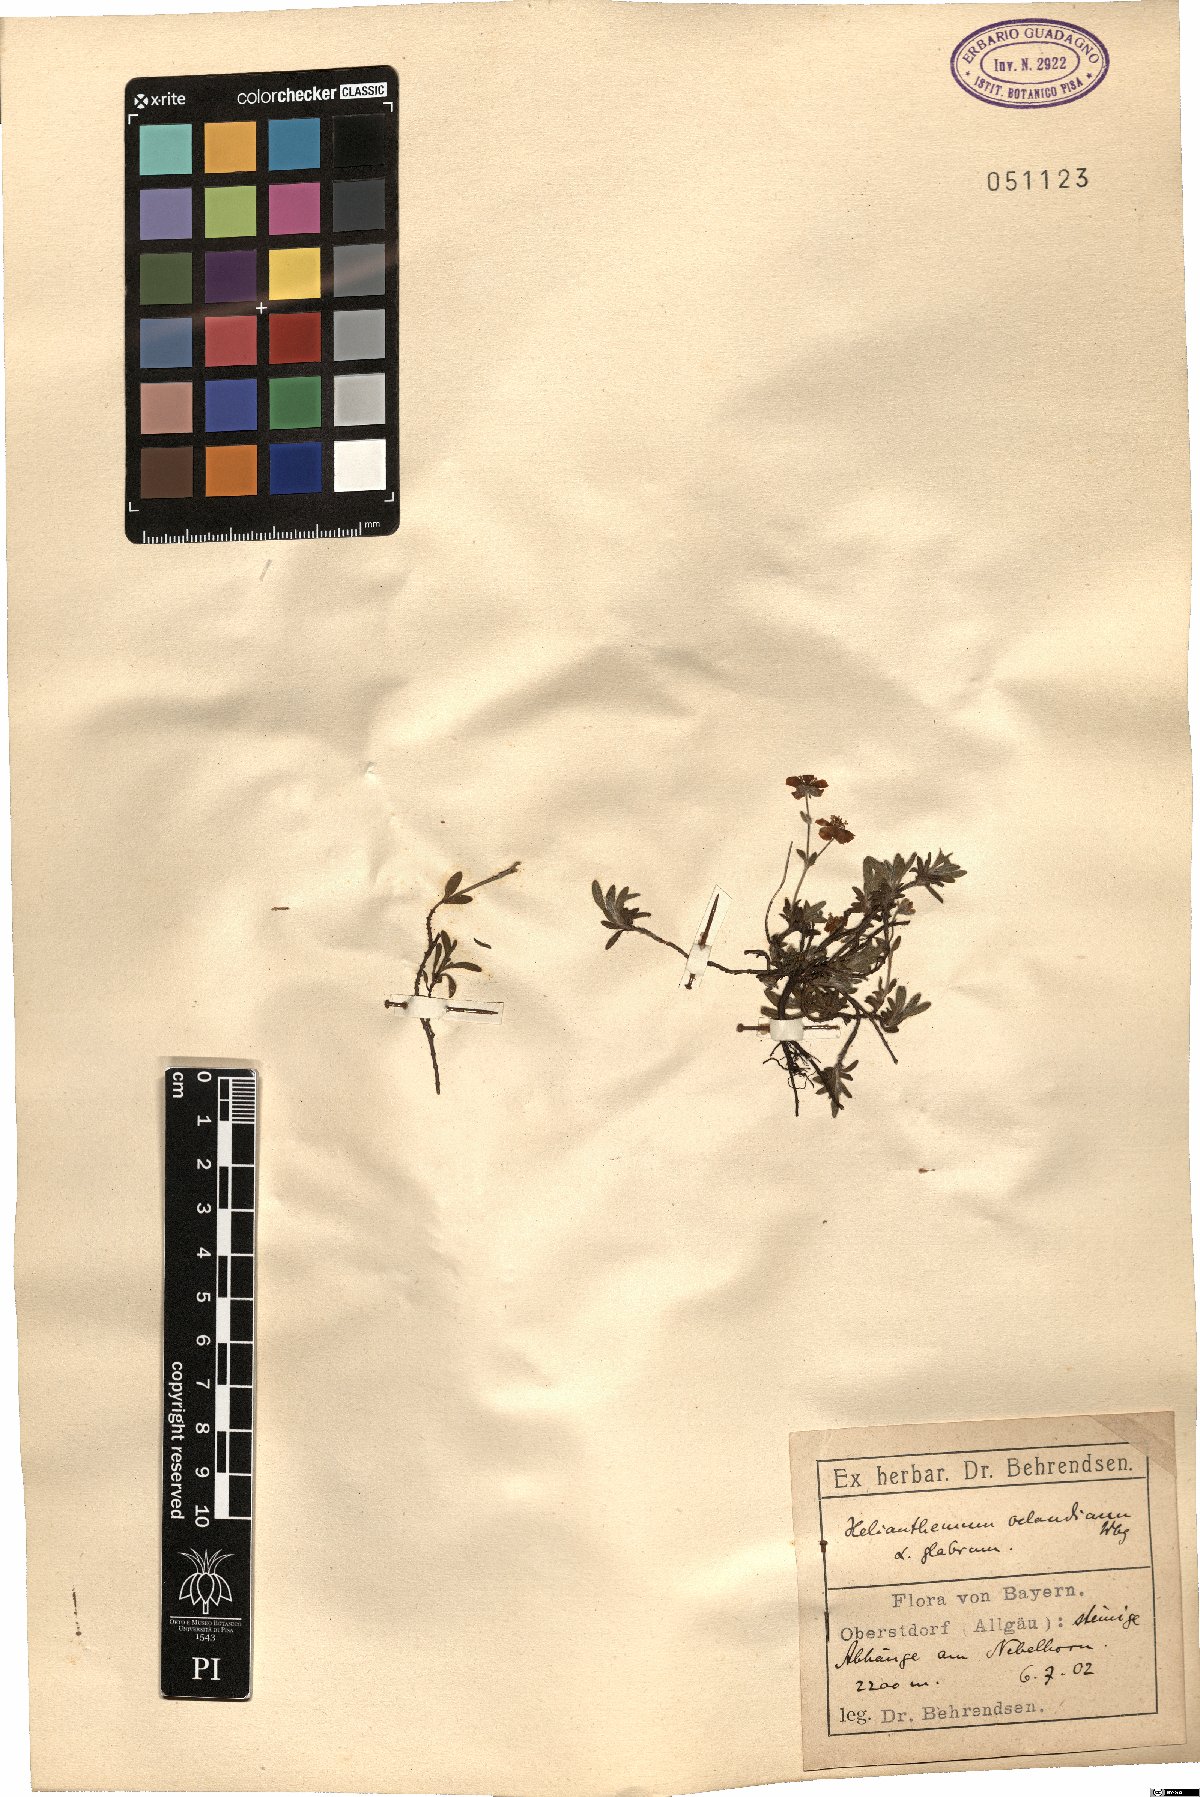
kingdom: Plantae
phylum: Tracheophyta
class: Magnoliopsida
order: Malvales
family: Cistaceae
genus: Helianthemum
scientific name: Helianthemum oelandicum
